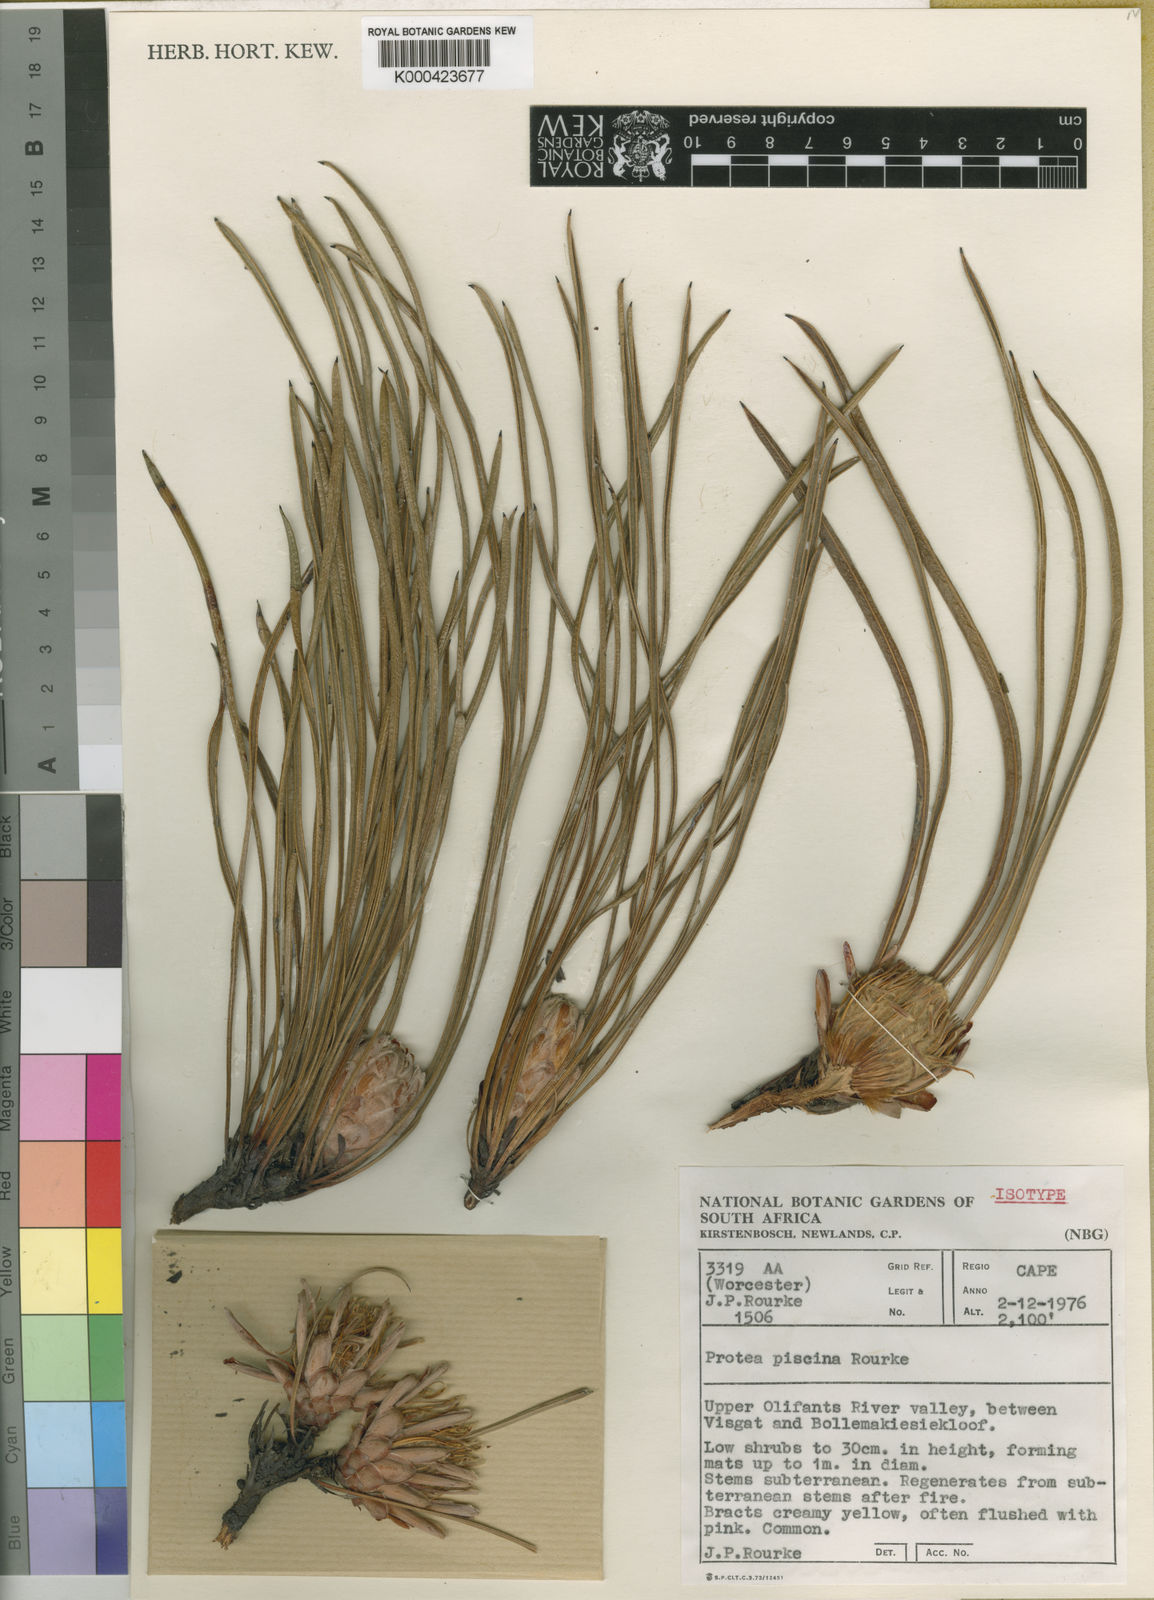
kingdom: Plantae
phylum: Tracheophyta
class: Magnoliopsida
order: Proteales
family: Proteaceae
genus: Protea
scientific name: Protea piscina
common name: Visgat sugarbush
